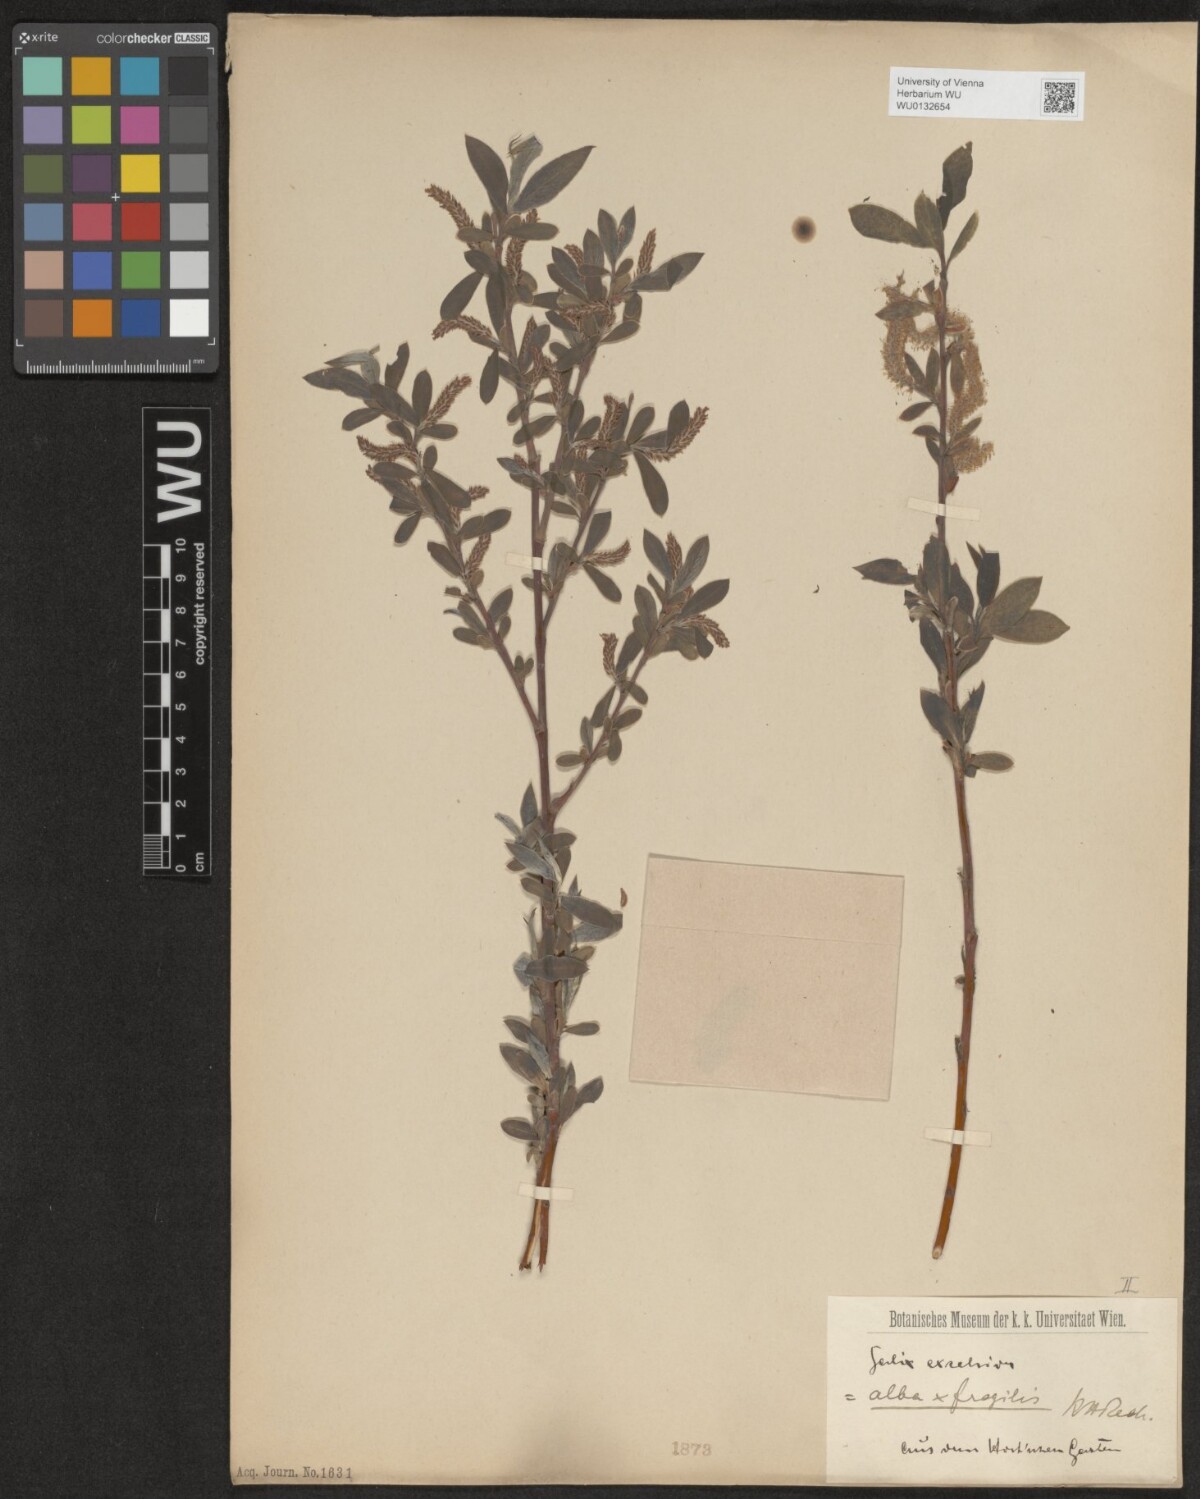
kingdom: Plantae
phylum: Tracheophyta
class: Magnoliopsida
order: Malpighiales
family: Salicaceae
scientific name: Salicaceae
